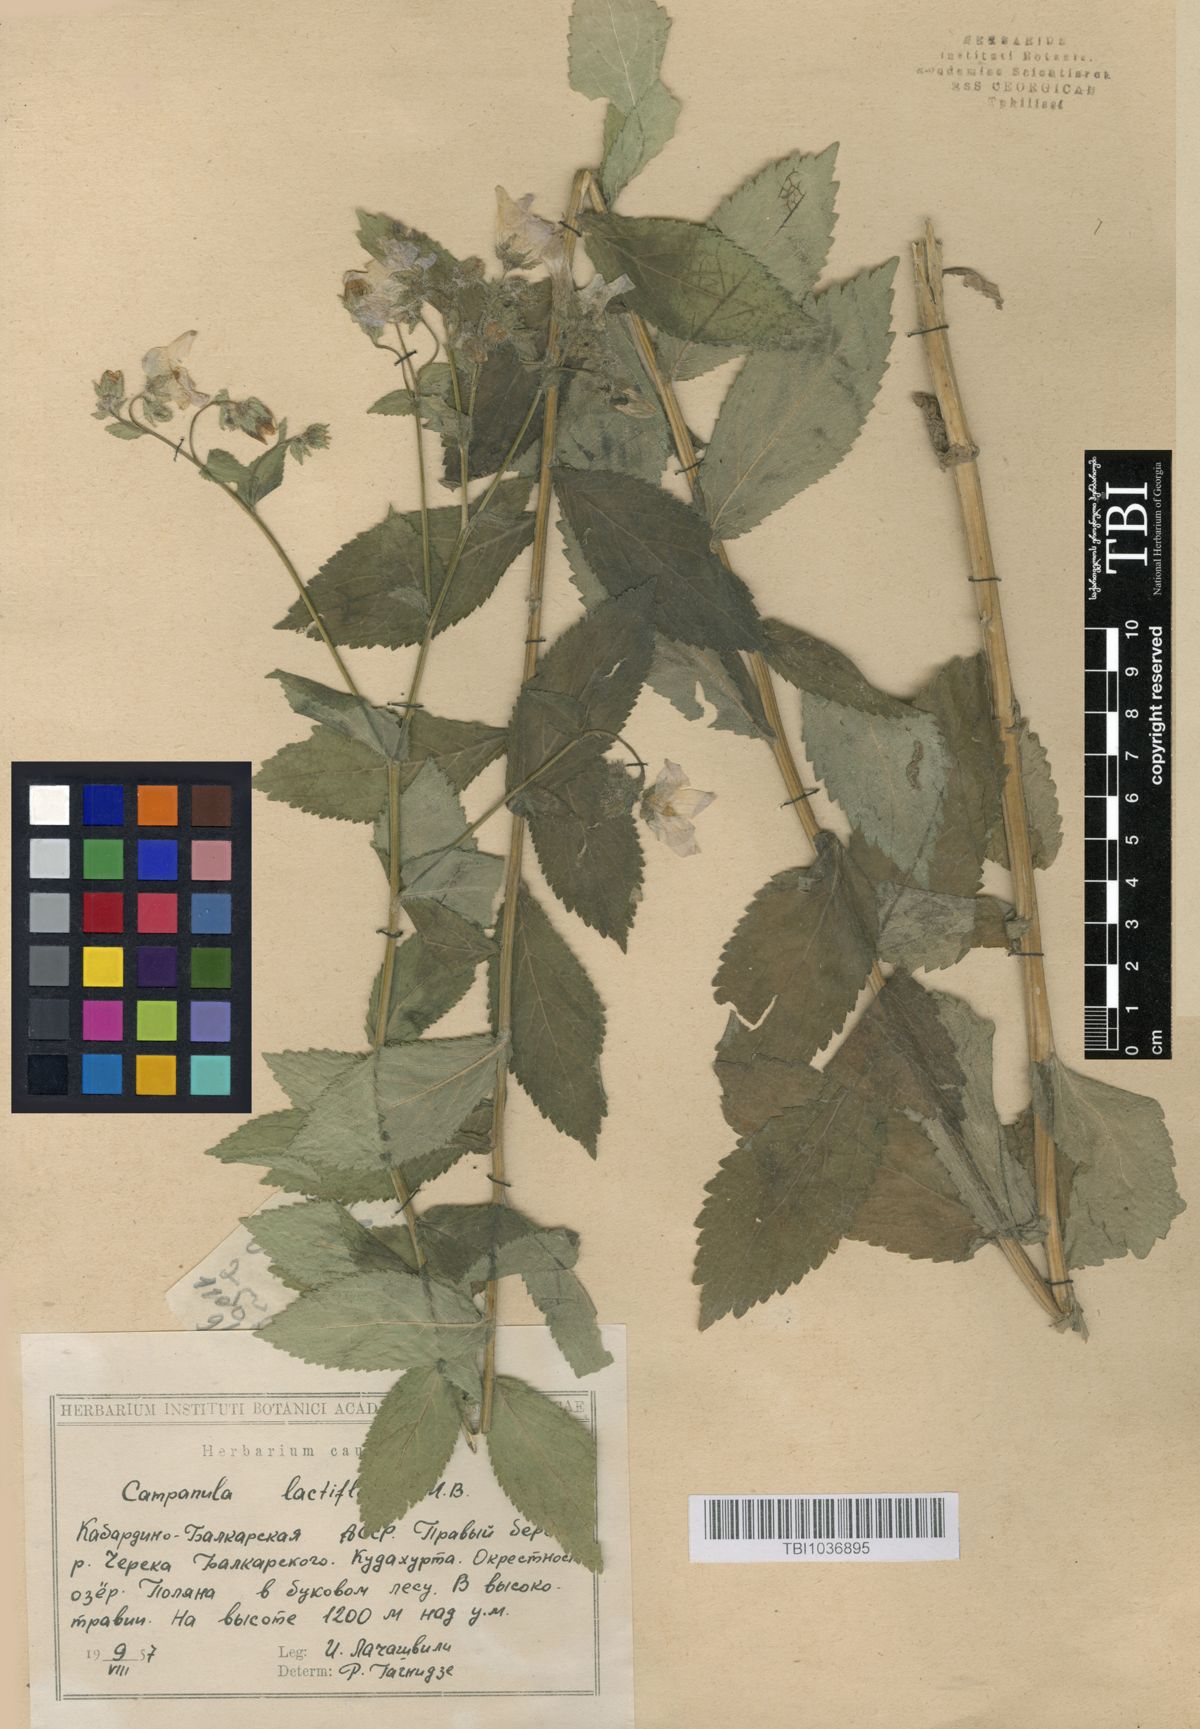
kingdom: Plantae
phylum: Tracheophyta
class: Magnoliopsida
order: Asterales
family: Campanulaceae
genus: Campanula
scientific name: Campanula lactiflora
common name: Milky bellflower
